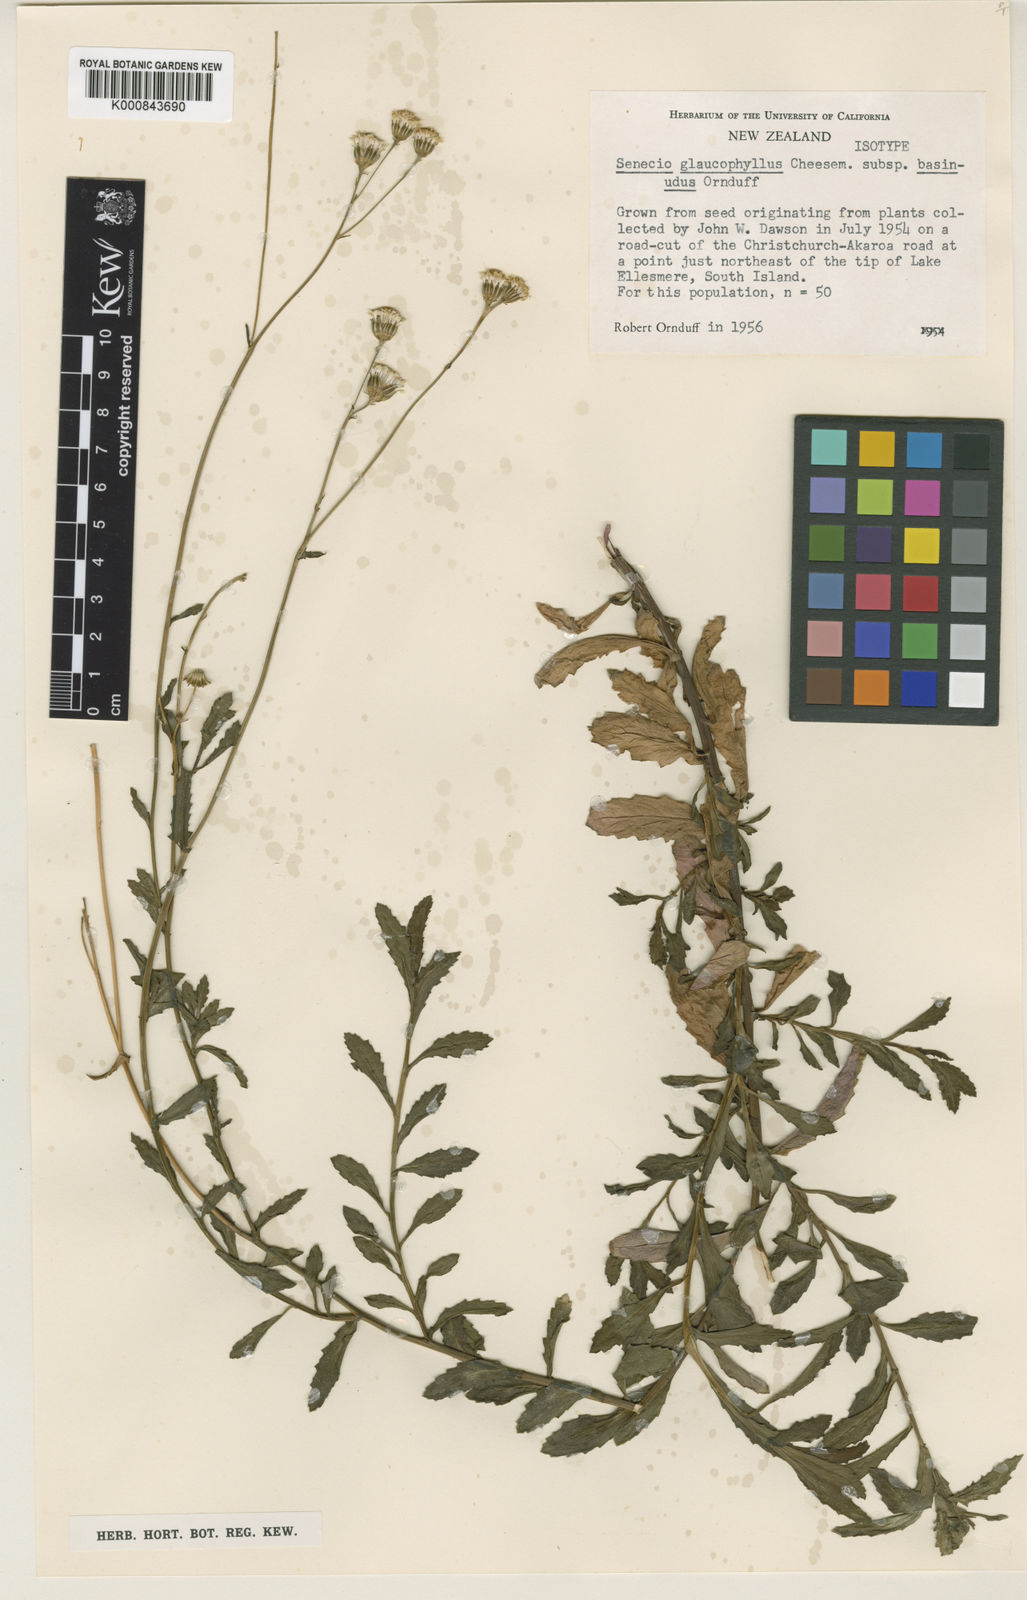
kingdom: Plantae
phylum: Tracheophyta
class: Magnoliopsida
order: Asterales
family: Asteraceae
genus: Senecio
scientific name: Senecio matatini
